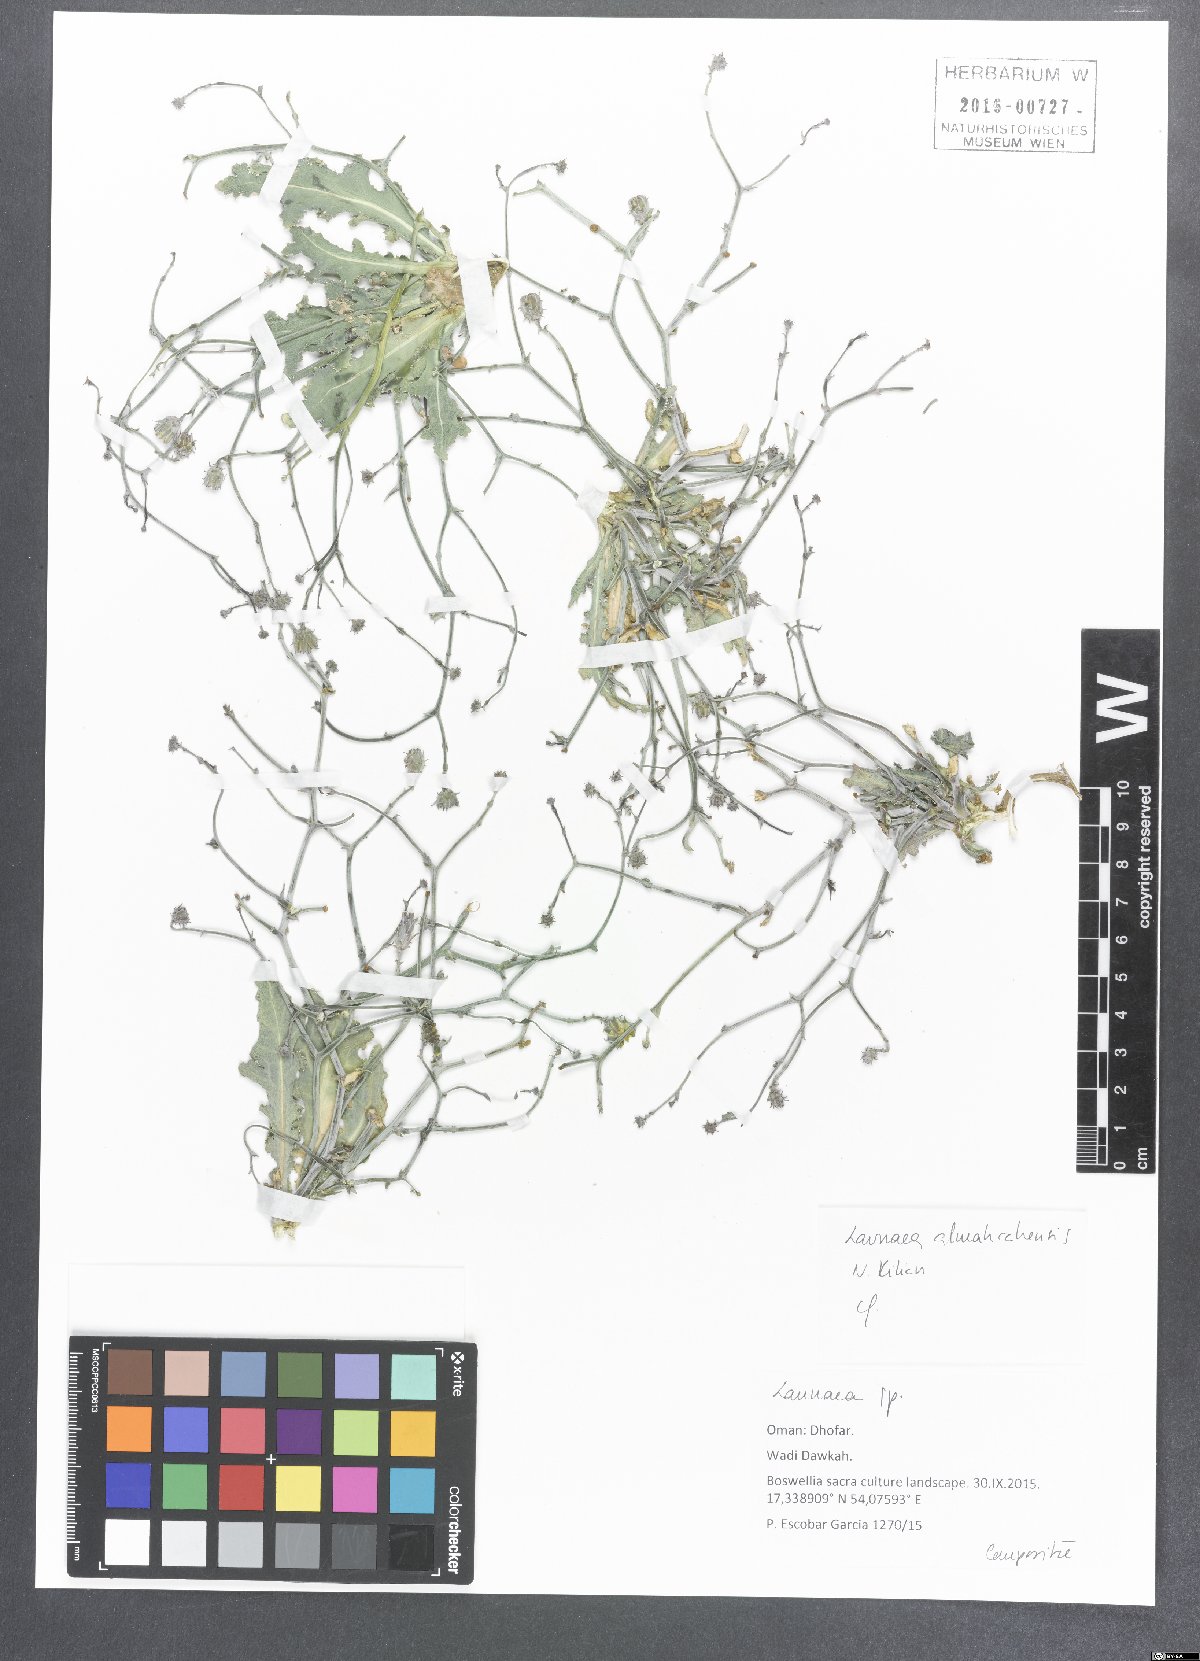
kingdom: Plantae
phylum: Tracheophyta
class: Magnoliopsida
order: Asterales
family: Asteraceae
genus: Launaea
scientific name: Launaea almahrahensis
